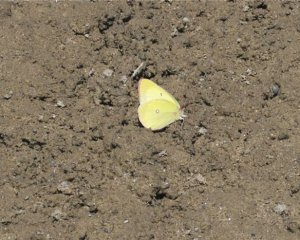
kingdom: Animalia
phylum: Arthropoda
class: Insecta
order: Lepidoptera
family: Pieridae
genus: Colias
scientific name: Colias interior
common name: Pink-edged Sulphur
